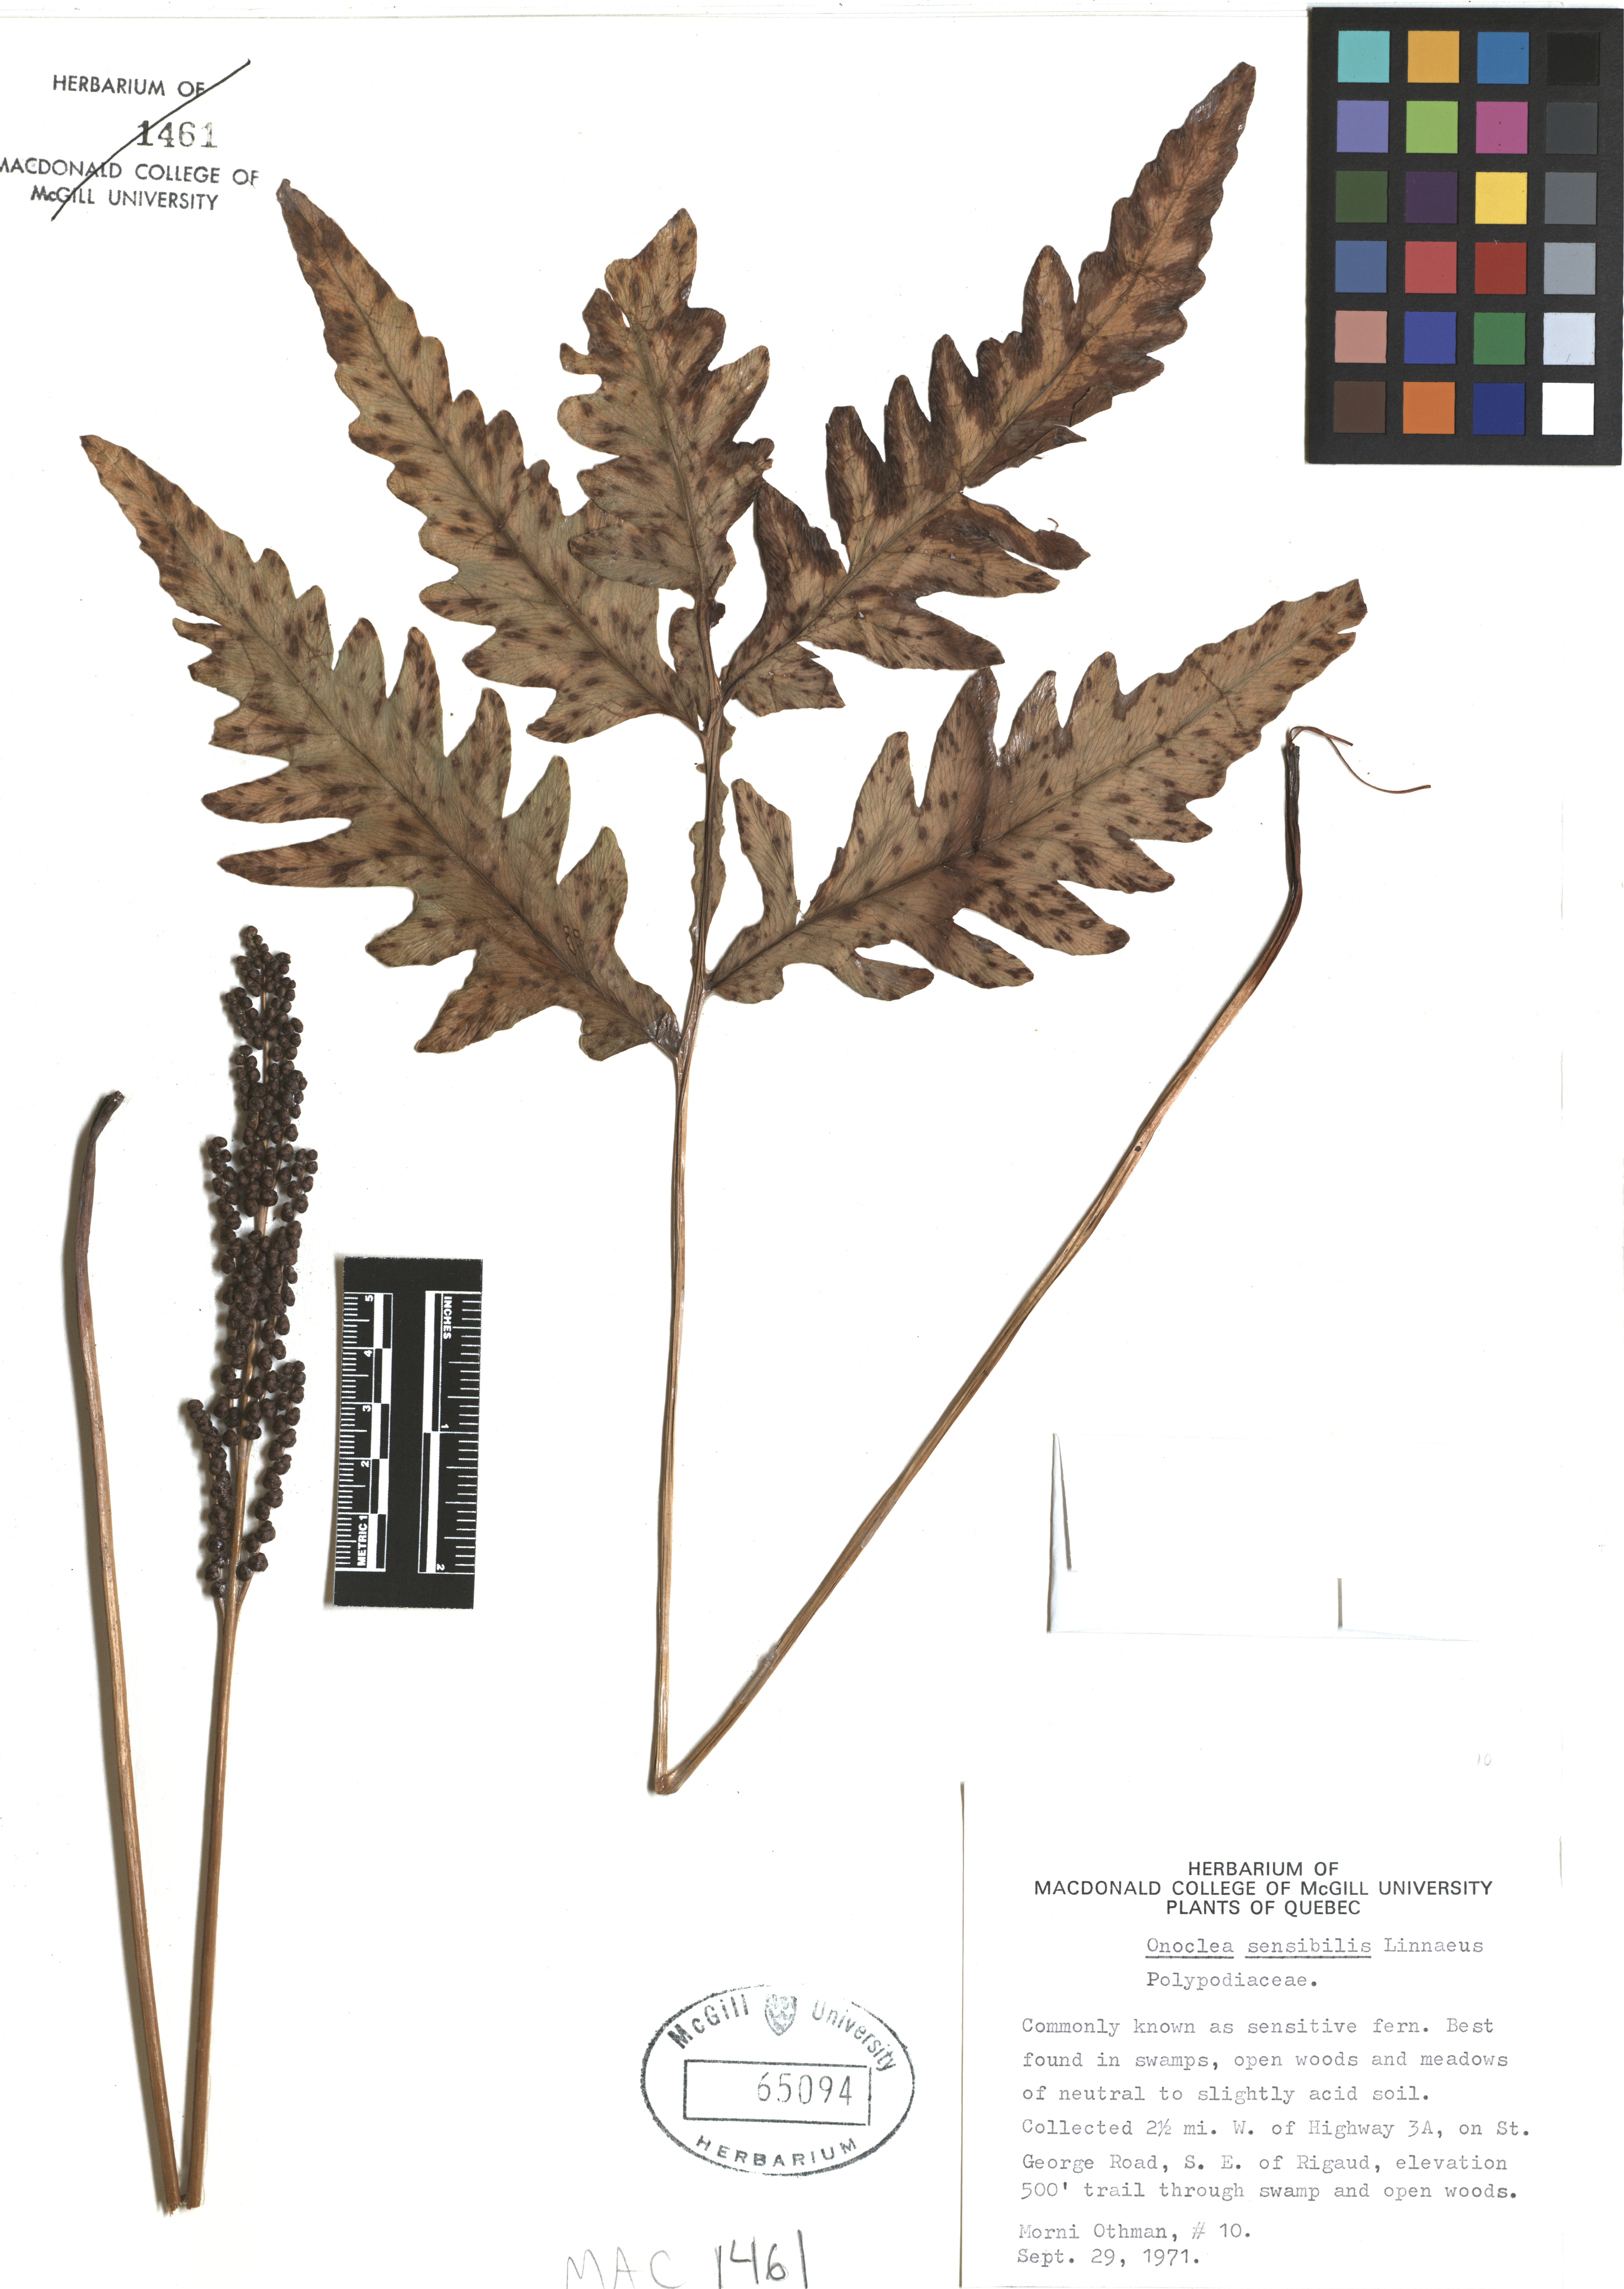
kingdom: Plantae
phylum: Tracheophyta
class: Polypodiopsida
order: Polypodiales
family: Onocleaceae
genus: Onoclea
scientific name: Onoclea sensibilis
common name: Sensitive fern
